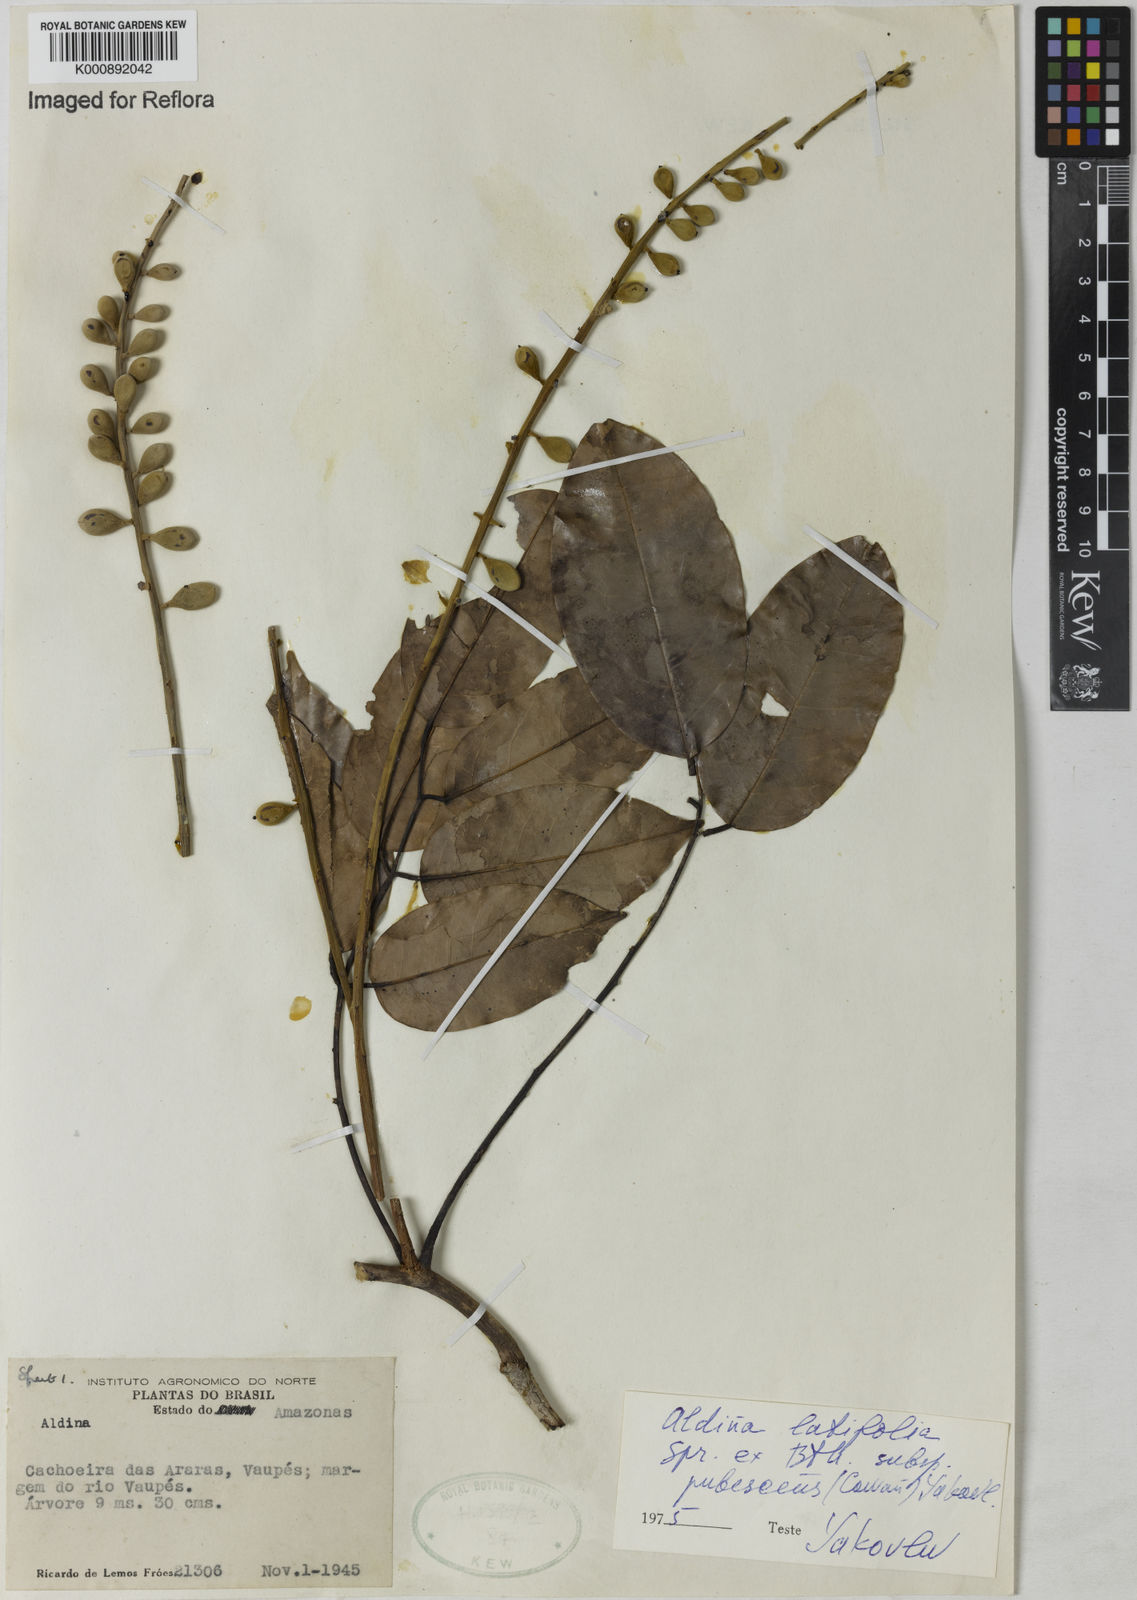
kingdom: Plantae
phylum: Tracheophyta
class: Magnoliopsida
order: Fabales
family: Fabaceae
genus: Aldina
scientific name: Aldina latifolia
